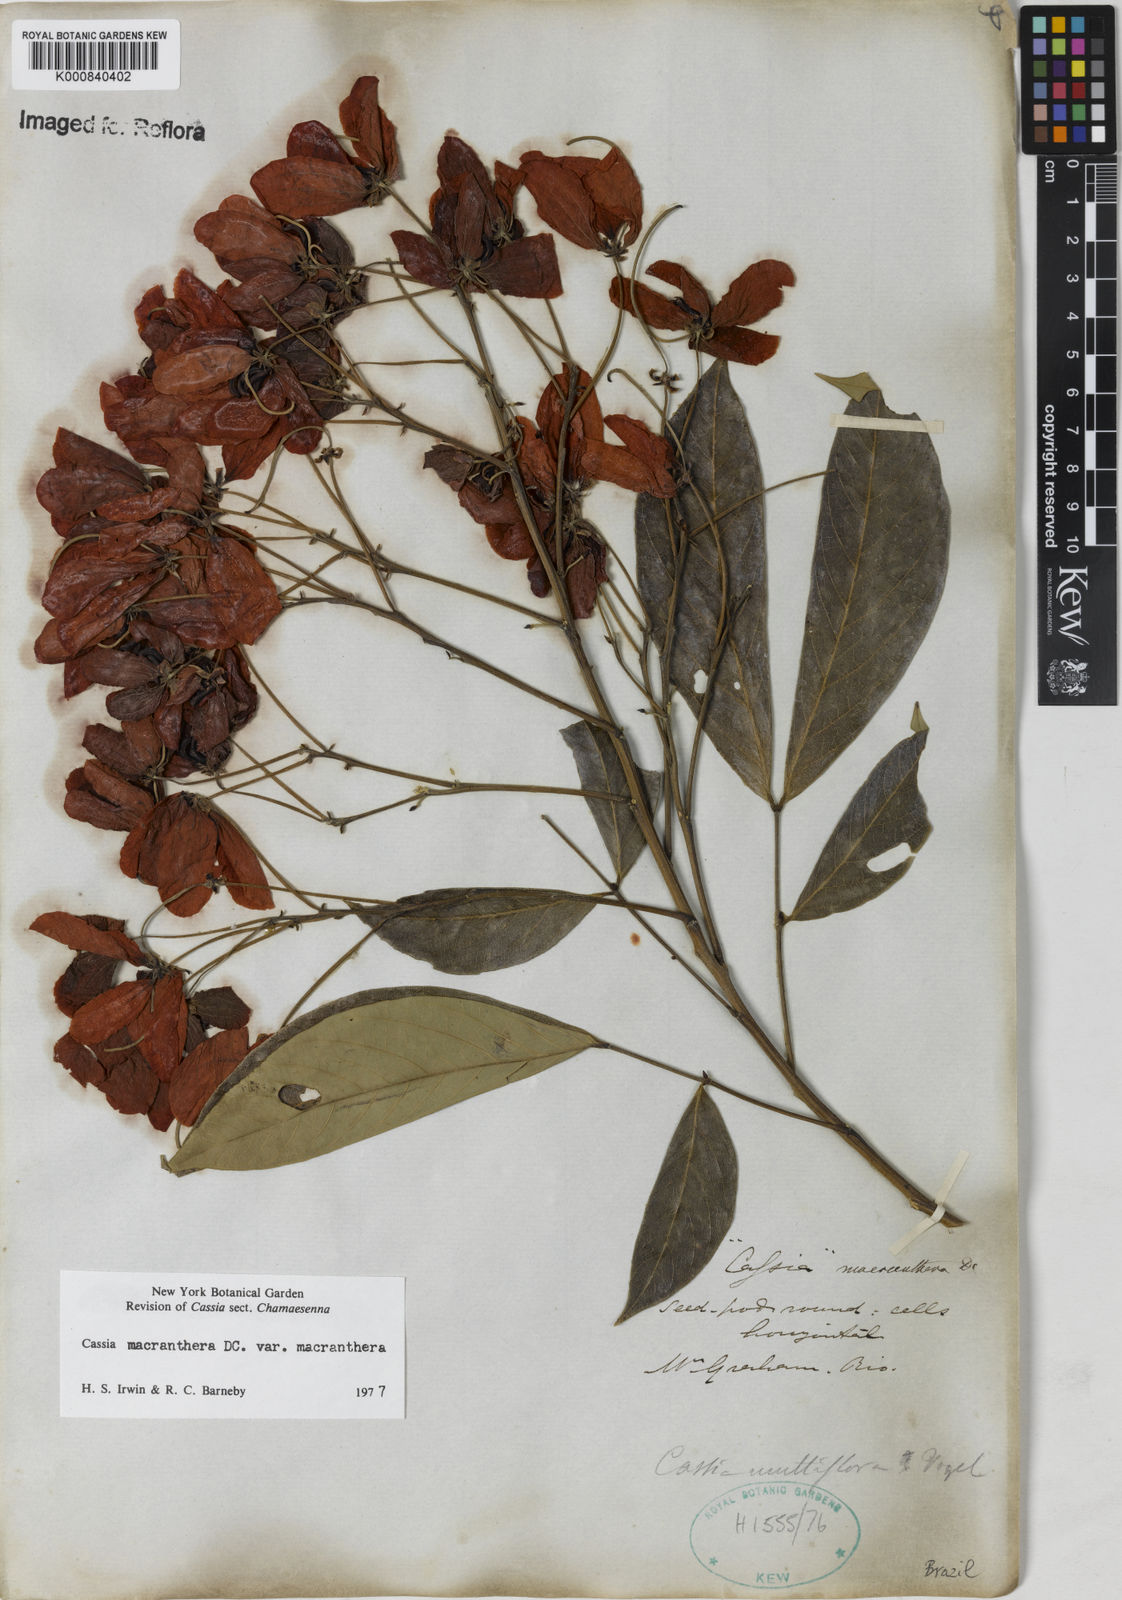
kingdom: Plantae
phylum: Tracheophyta
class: Magnoliopsida
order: Fabales
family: Fabaceae
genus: Senna
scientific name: Senna macranthera
